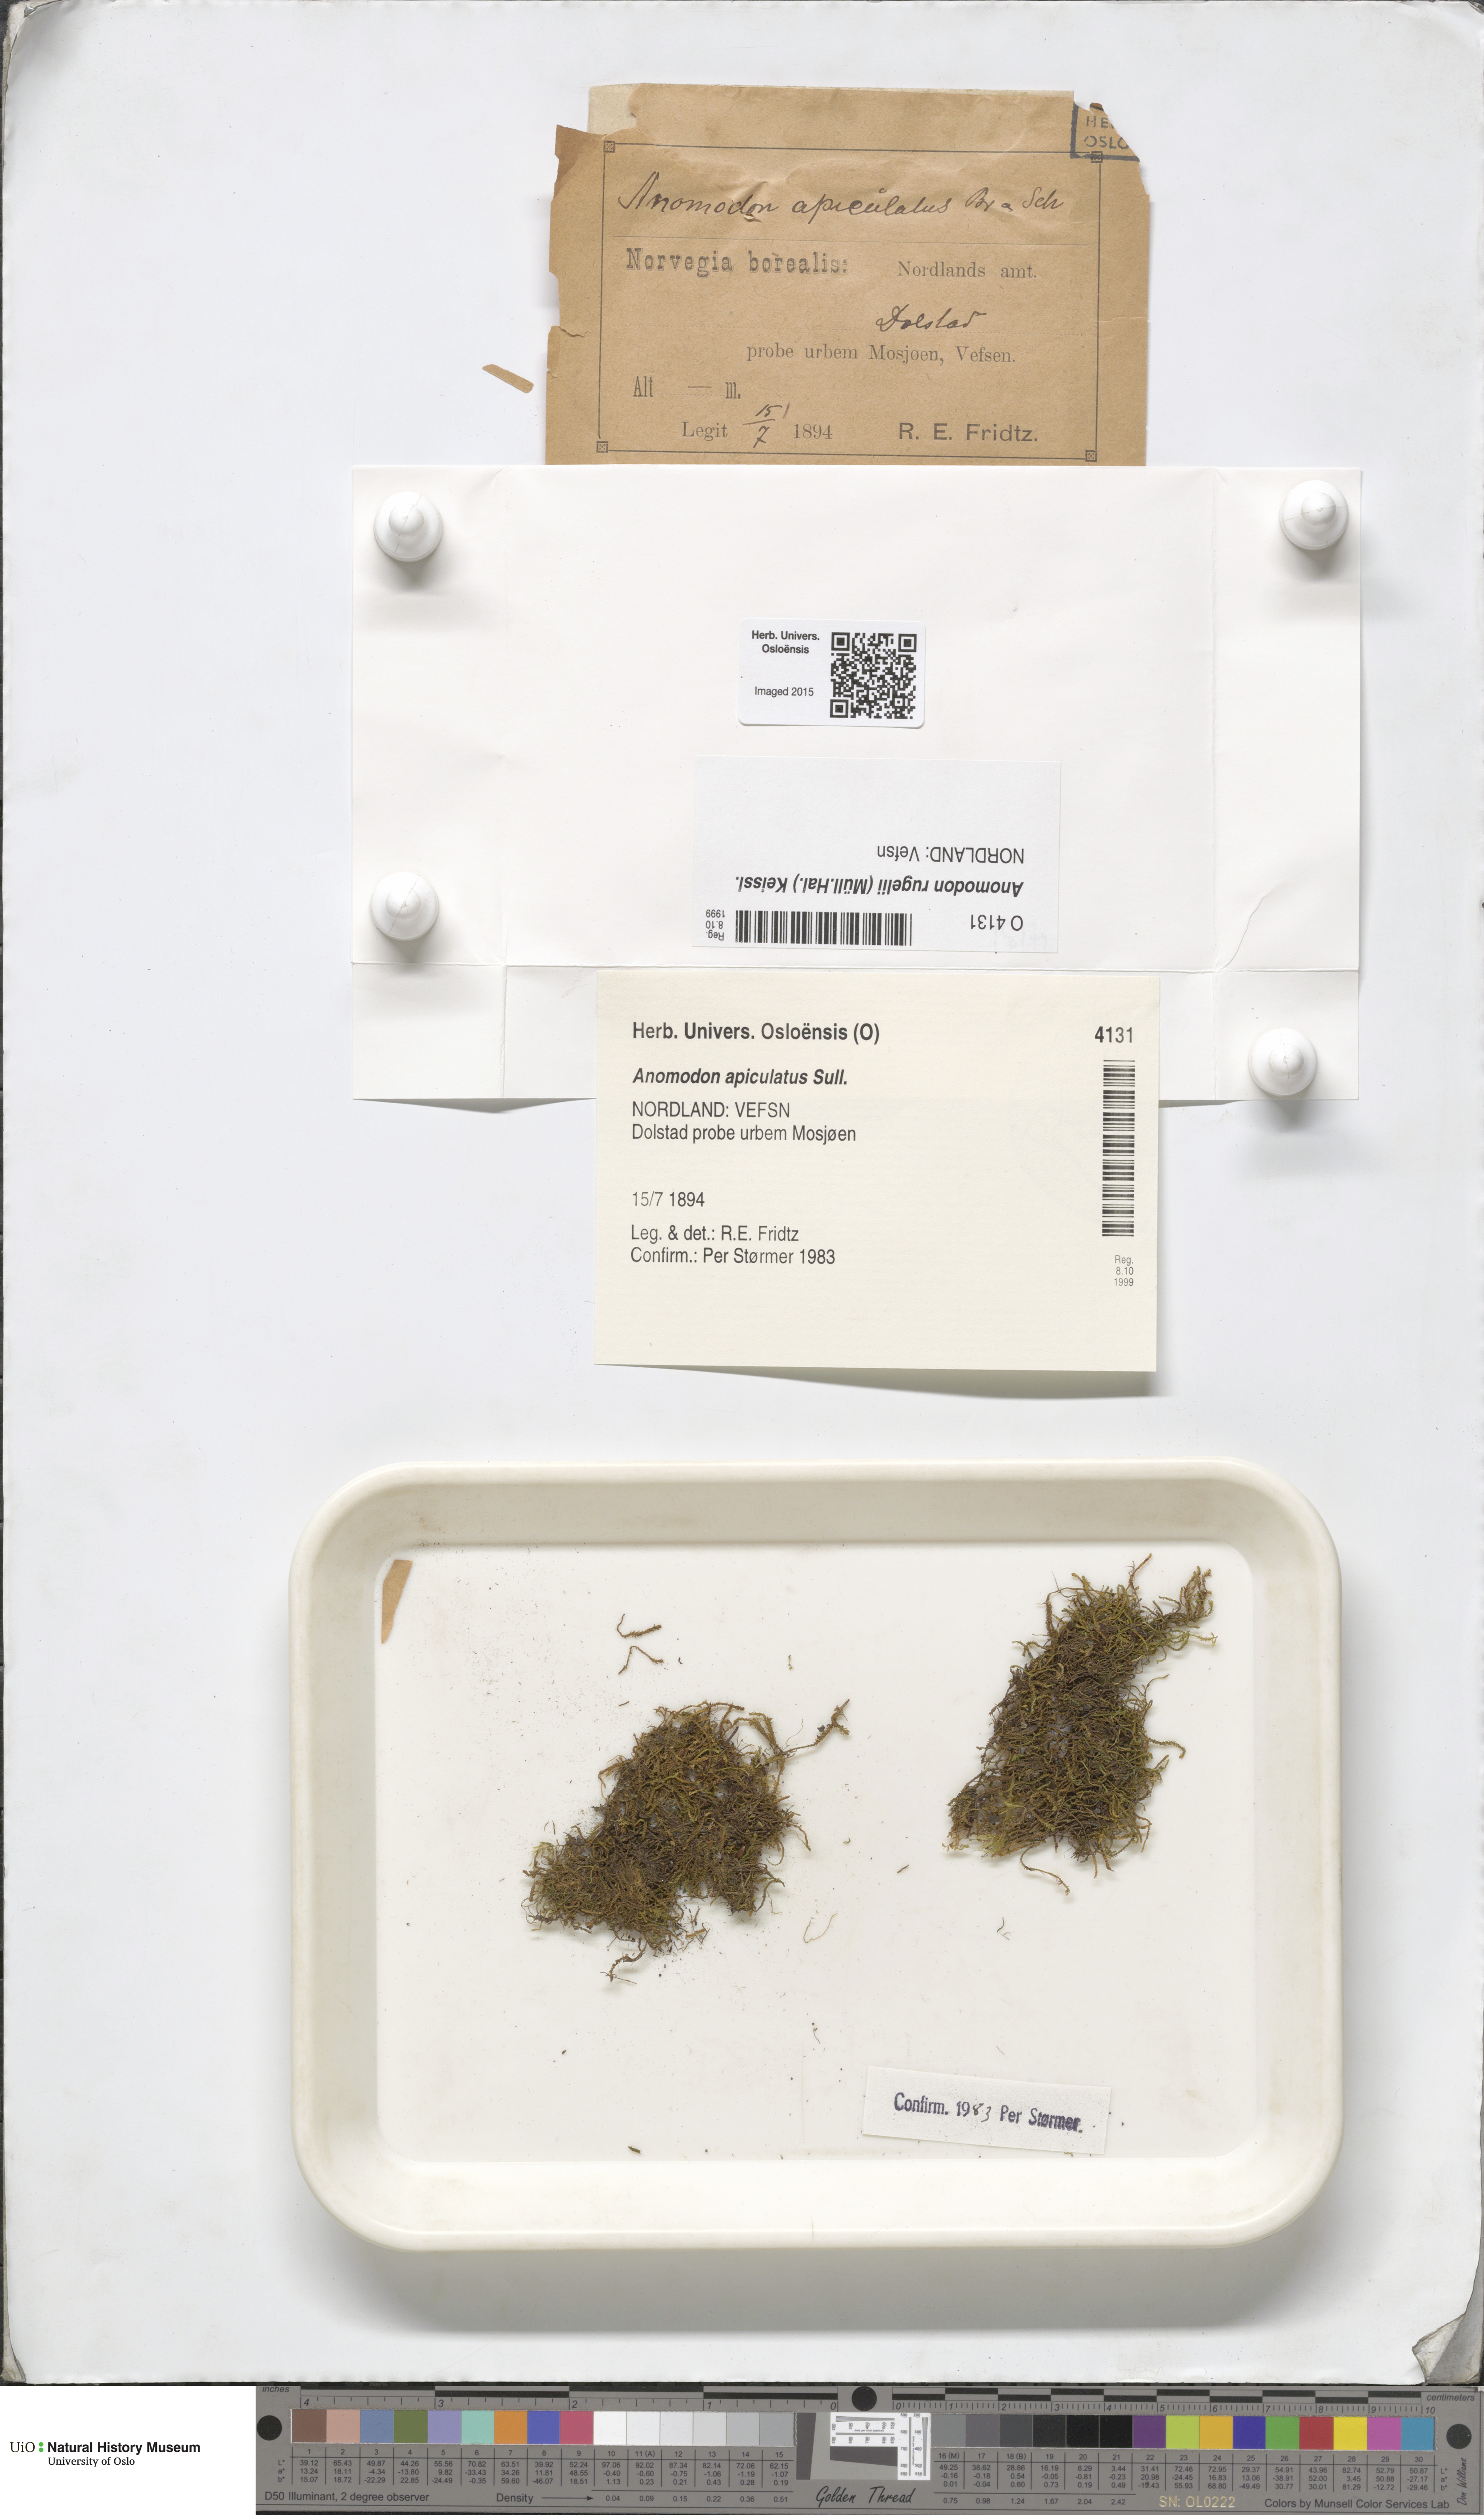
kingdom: Plantae
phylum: Bryophyta
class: Bryopsida
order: Hypnales
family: Anomodontaceae
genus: Anomodontopsis
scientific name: Anomodontopsis rugelii
